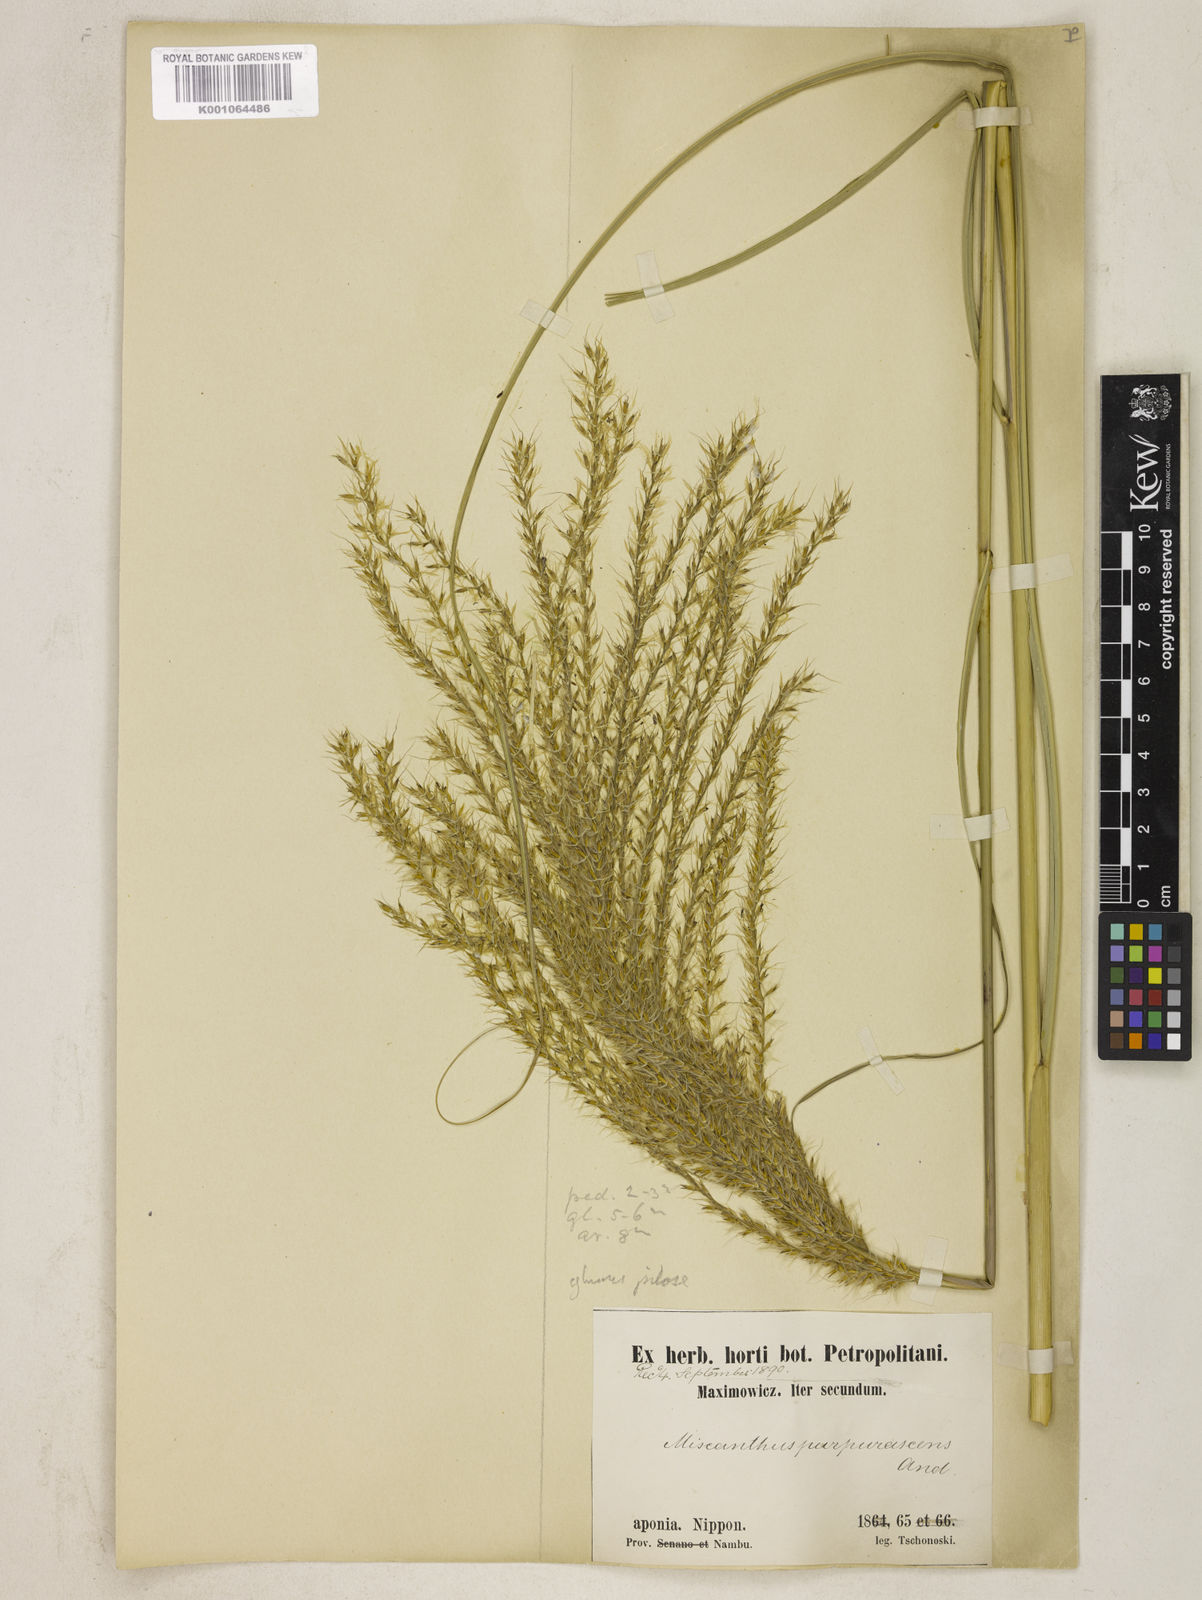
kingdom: Plantae
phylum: Tracheophyta
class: Liliopsida
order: Poales
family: Poaceae
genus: Miscanthus
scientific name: Miscanthus sinensis
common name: Chinese silvergrass
